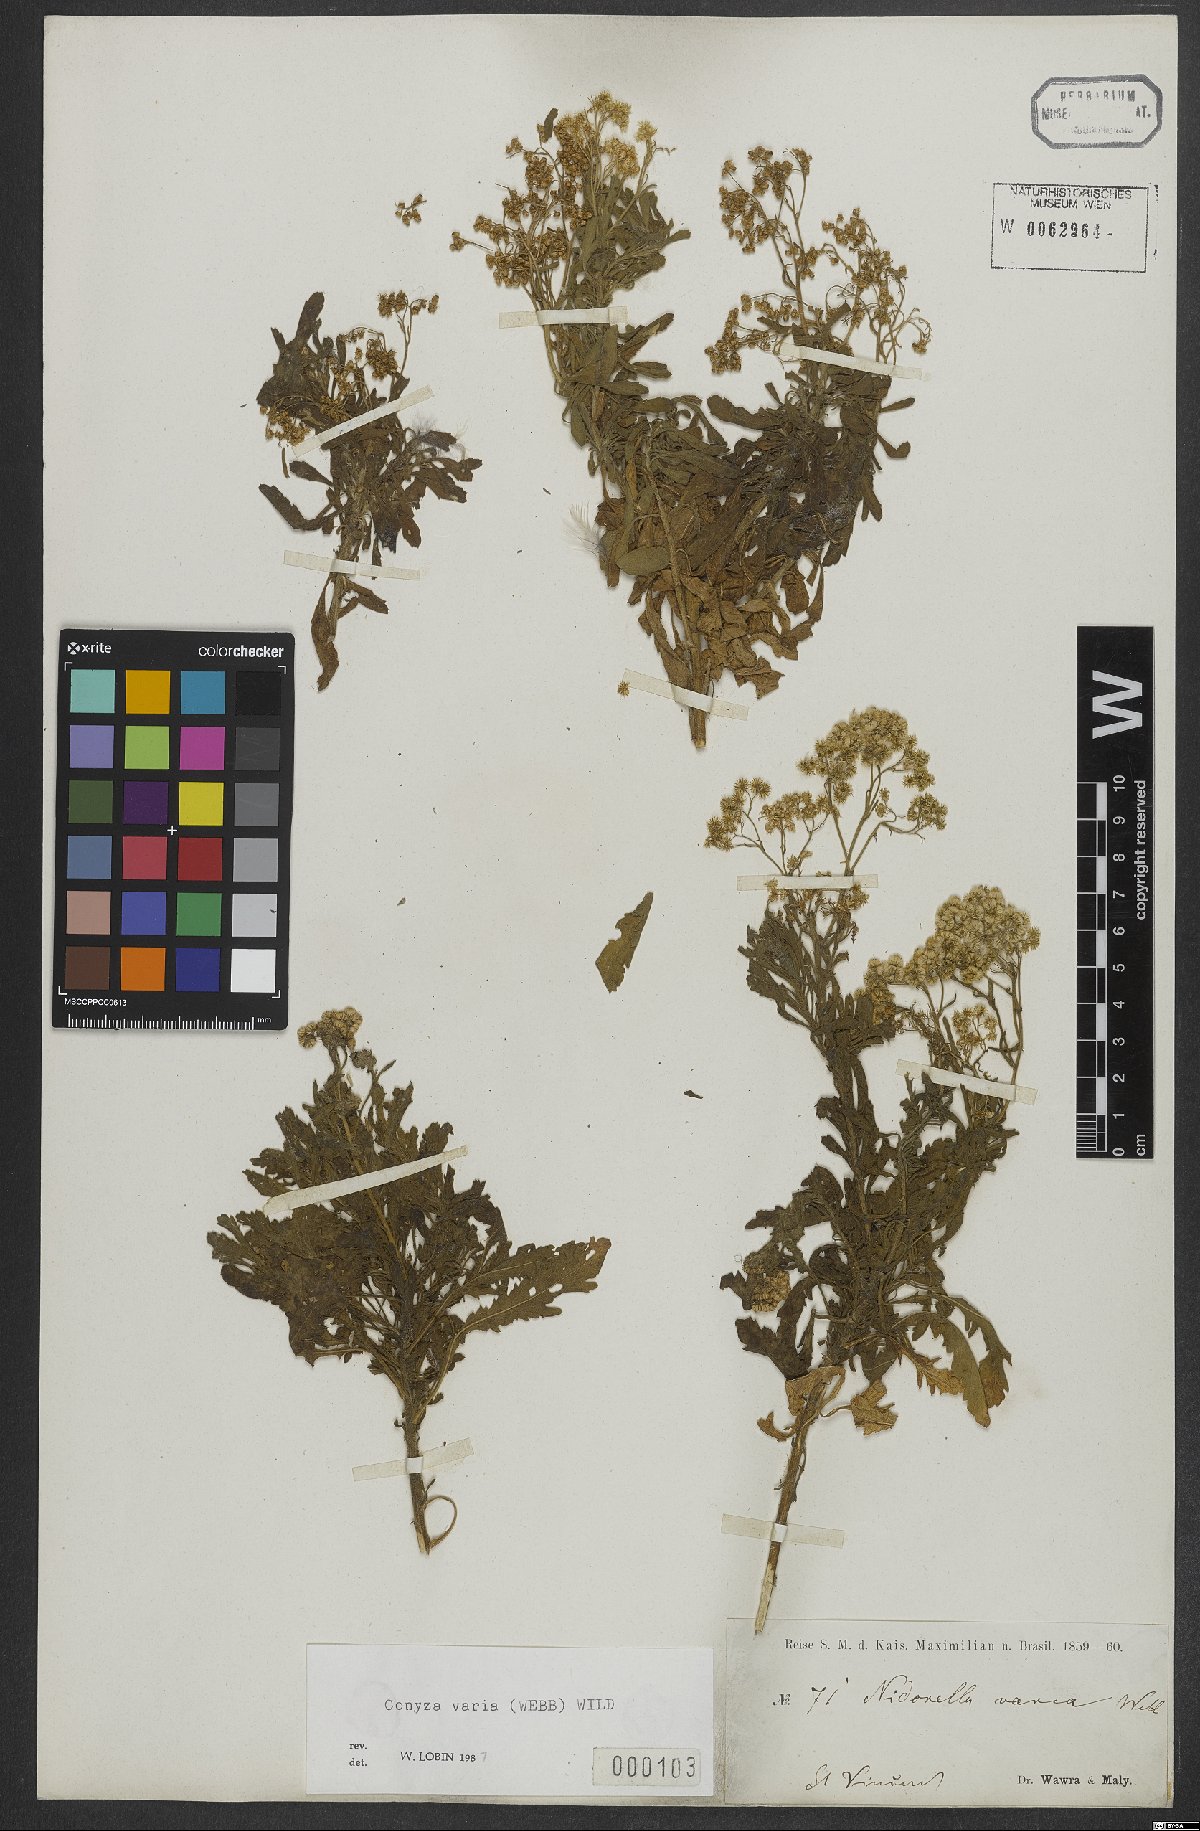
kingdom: Plantae
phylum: Tracheophyta
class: Magnoliopsida
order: Asterales
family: Asteraceae
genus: Nidorella
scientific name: Nidorella varia
